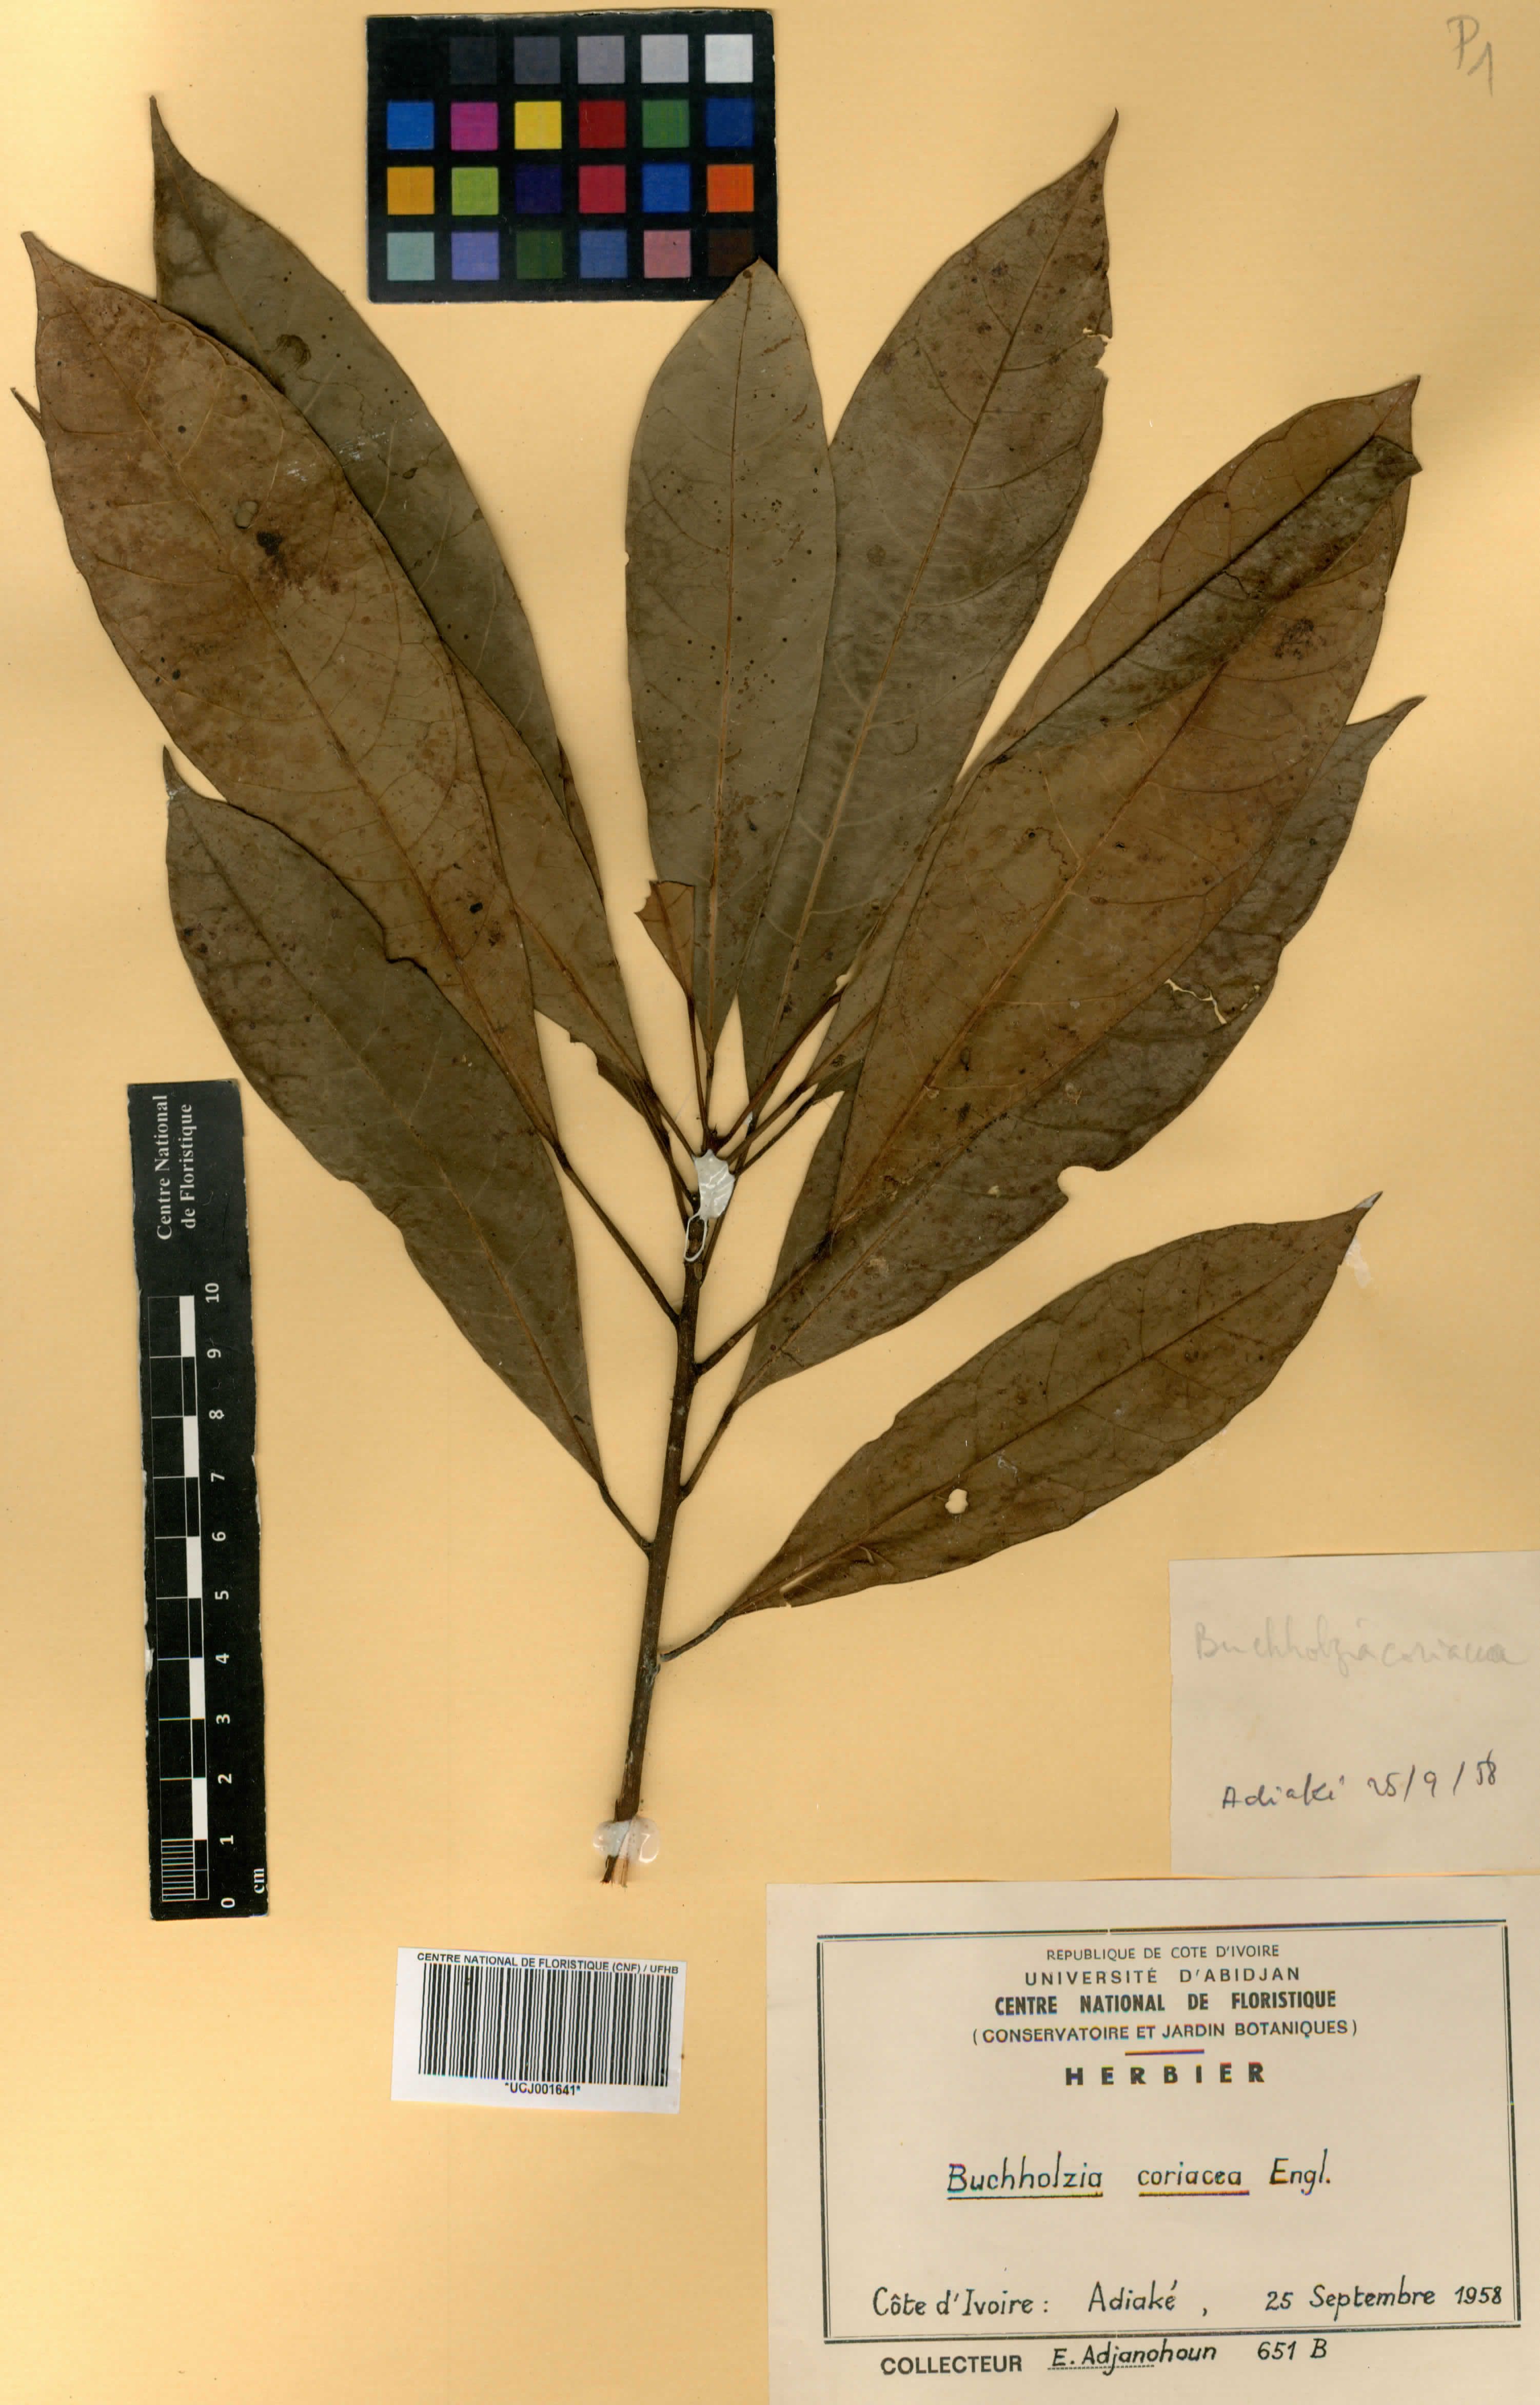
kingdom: Plantae
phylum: Tracheophyta
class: Magnoliopsida
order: Brassicales
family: Capparaceae
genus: Buchholzia
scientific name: Buchholzia coriacea
